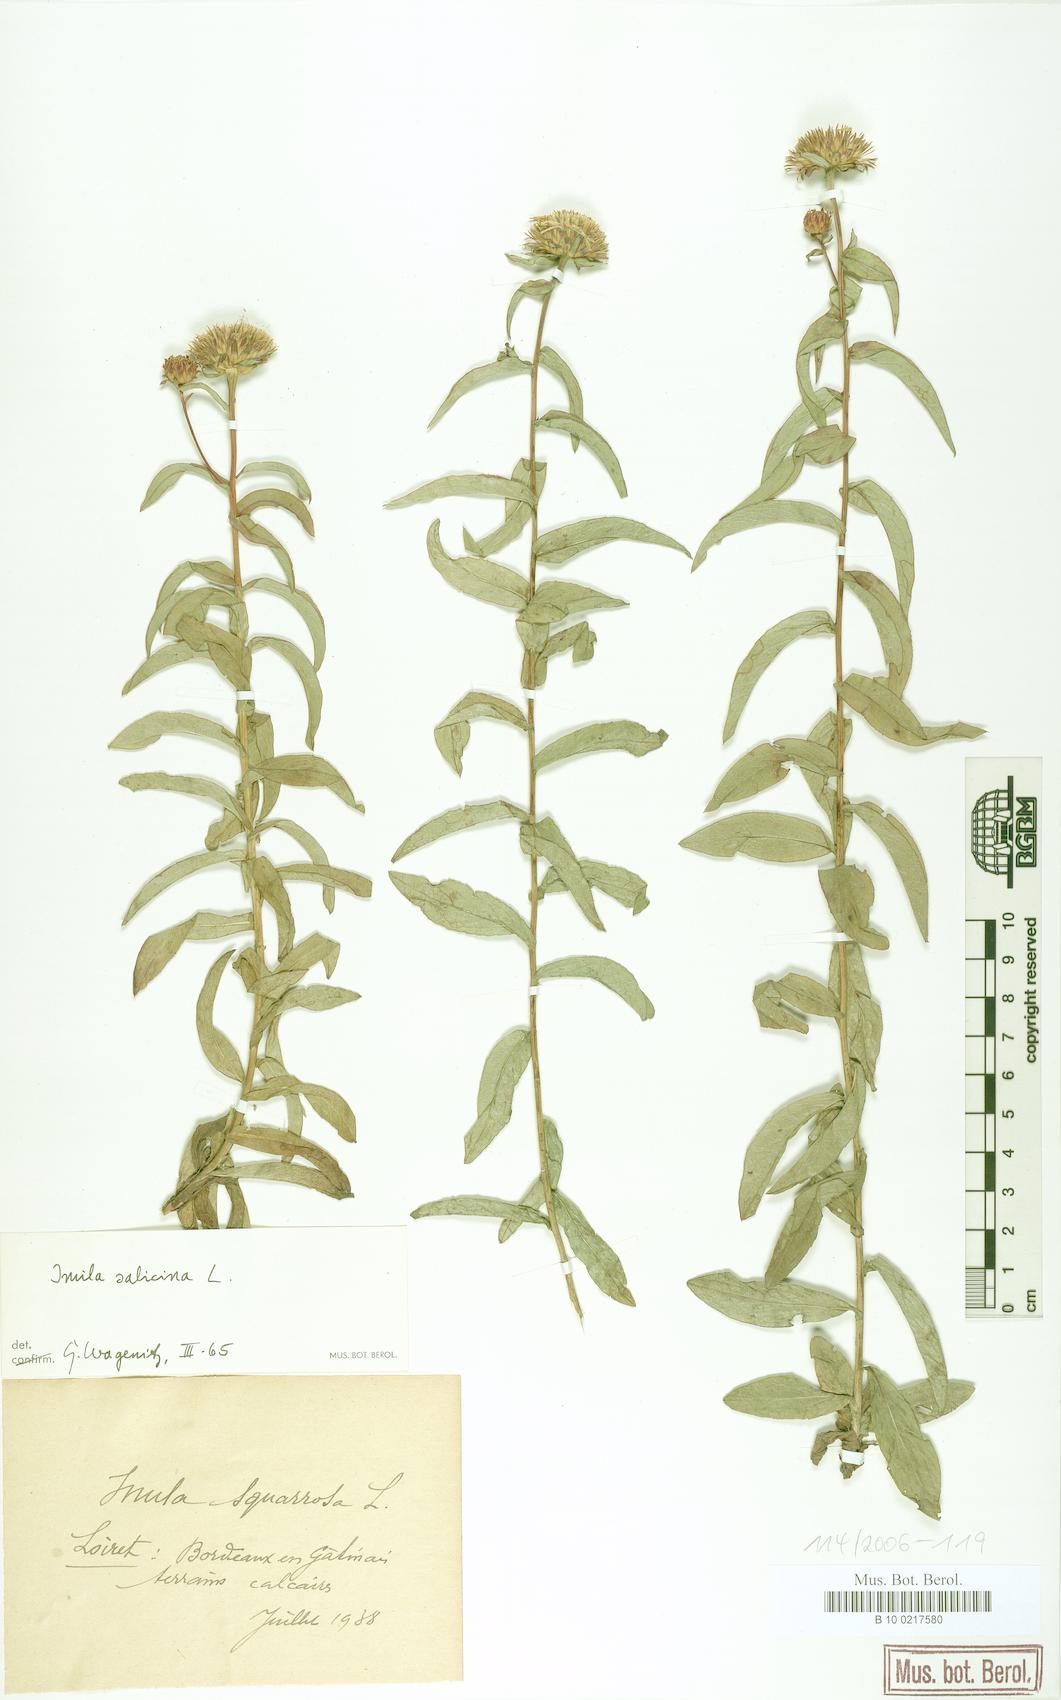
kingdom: Plantae
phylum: Tracheophyta
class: Magnoliopsida
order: Asterales
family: Asteraceae
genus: Pentanema
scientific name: Pentanema salicinum
